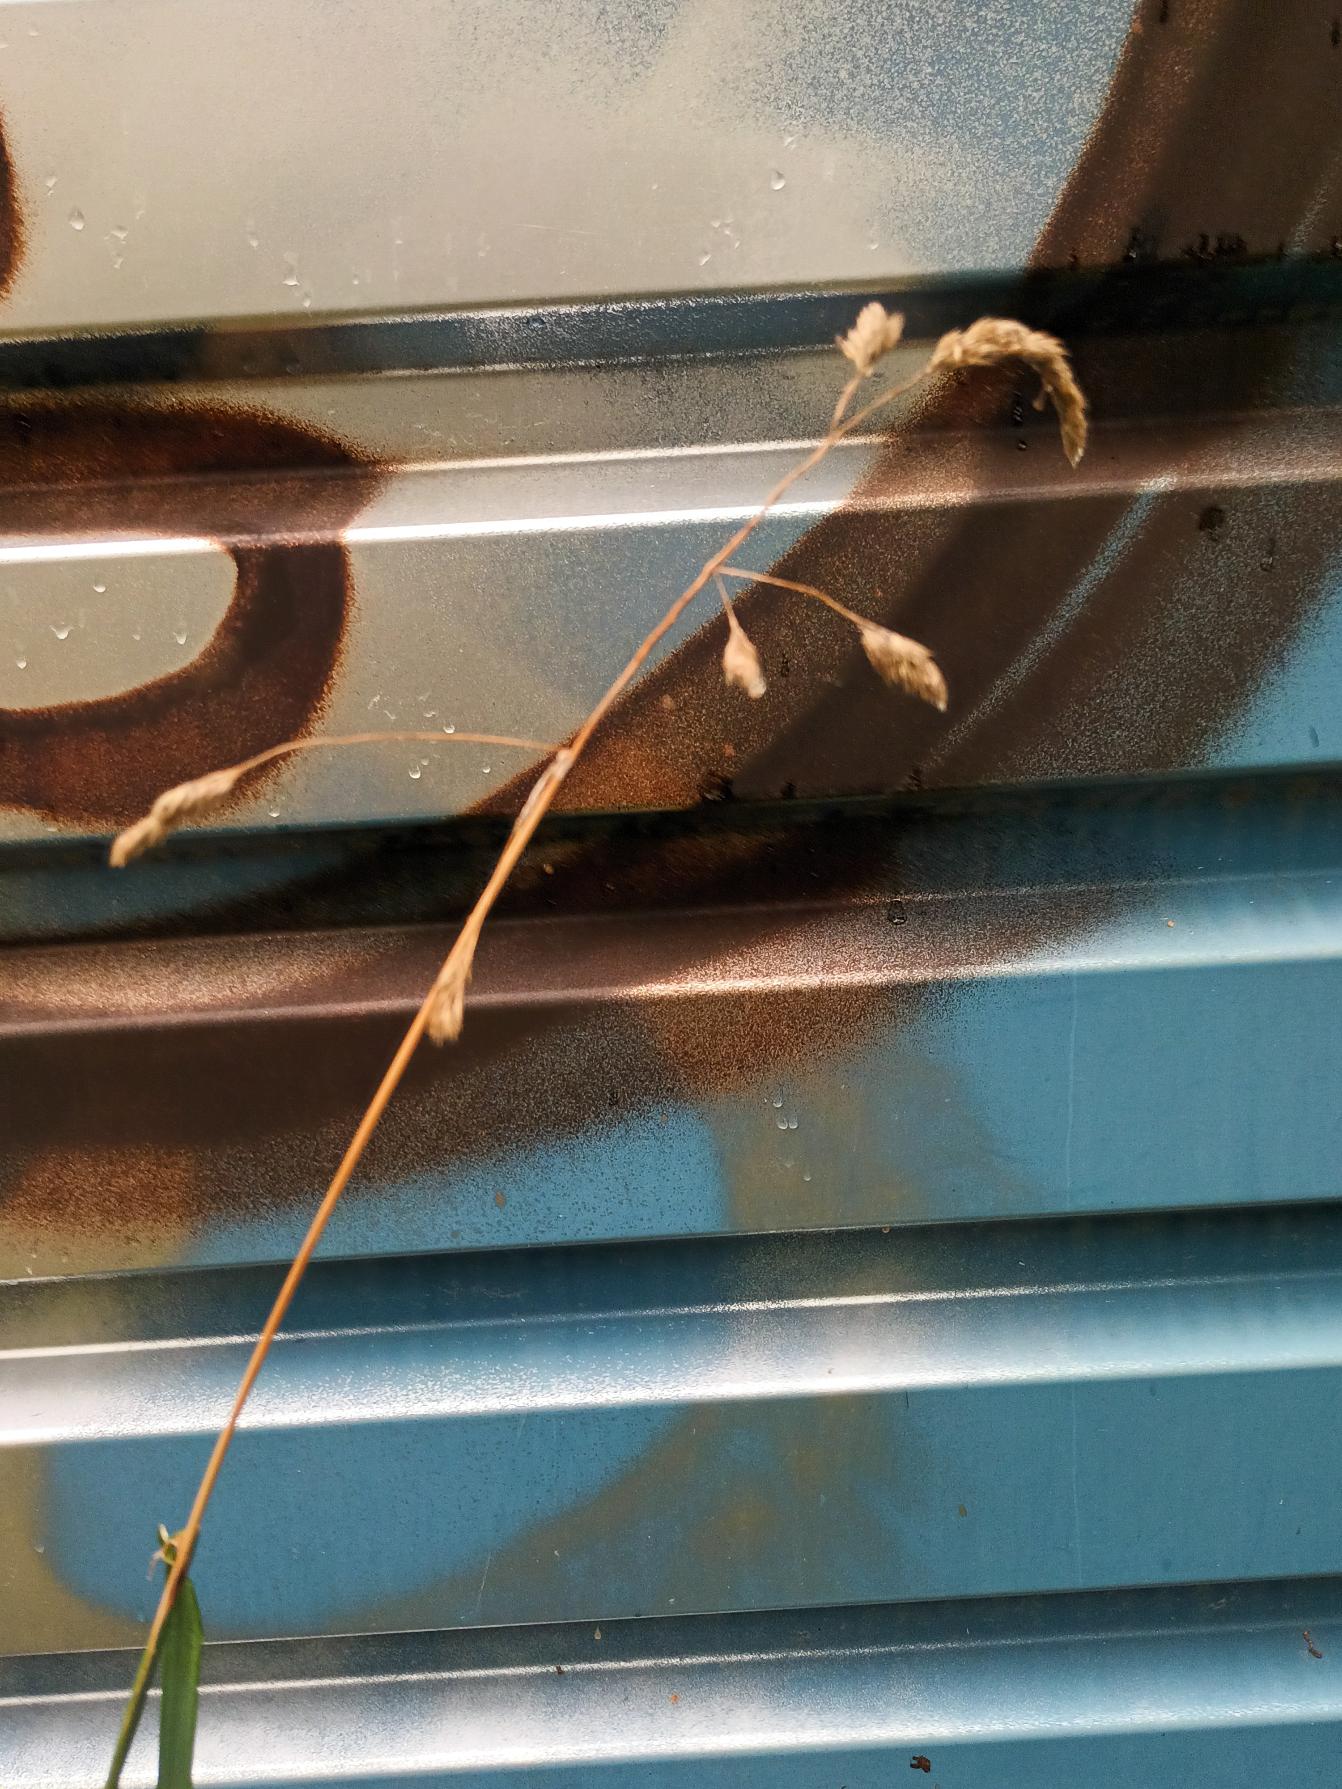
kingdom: Plantae
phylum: Tracheophyta
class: Liliopsida
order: Poales
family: Poaceae
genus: Dactylis
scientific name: Dactylis glomerata
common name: Almindelig hundegræs
